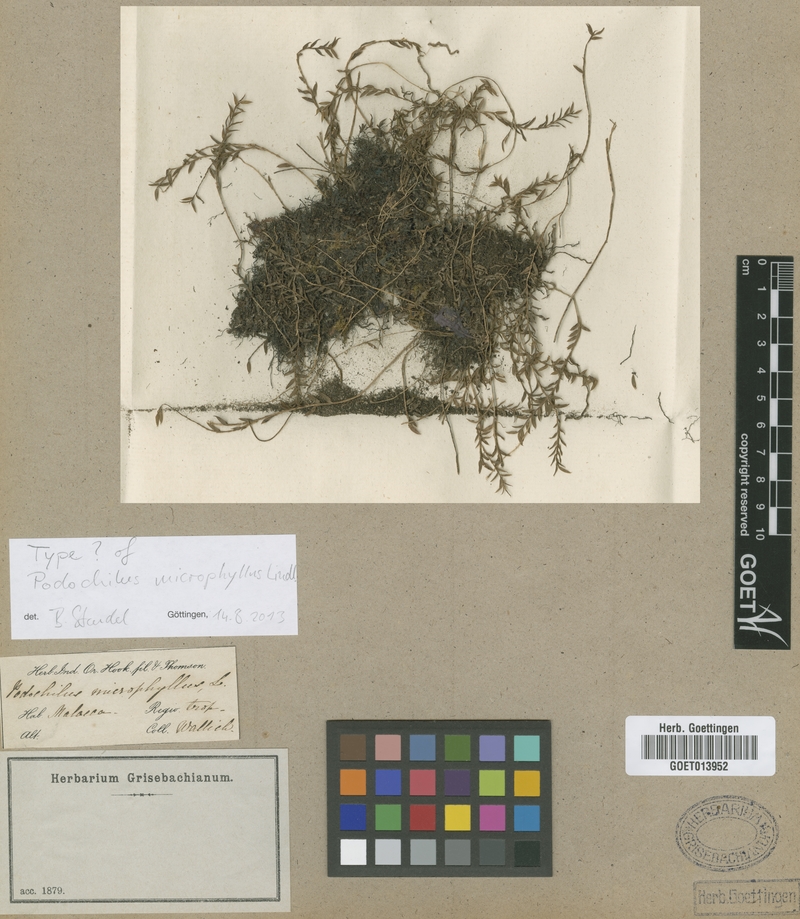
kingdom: Plantae
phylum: Tracheophyta
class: Liliopsida
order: Asparagales
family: Orchidaceae
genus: Podochilus
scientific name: Podochilus microphyllus
